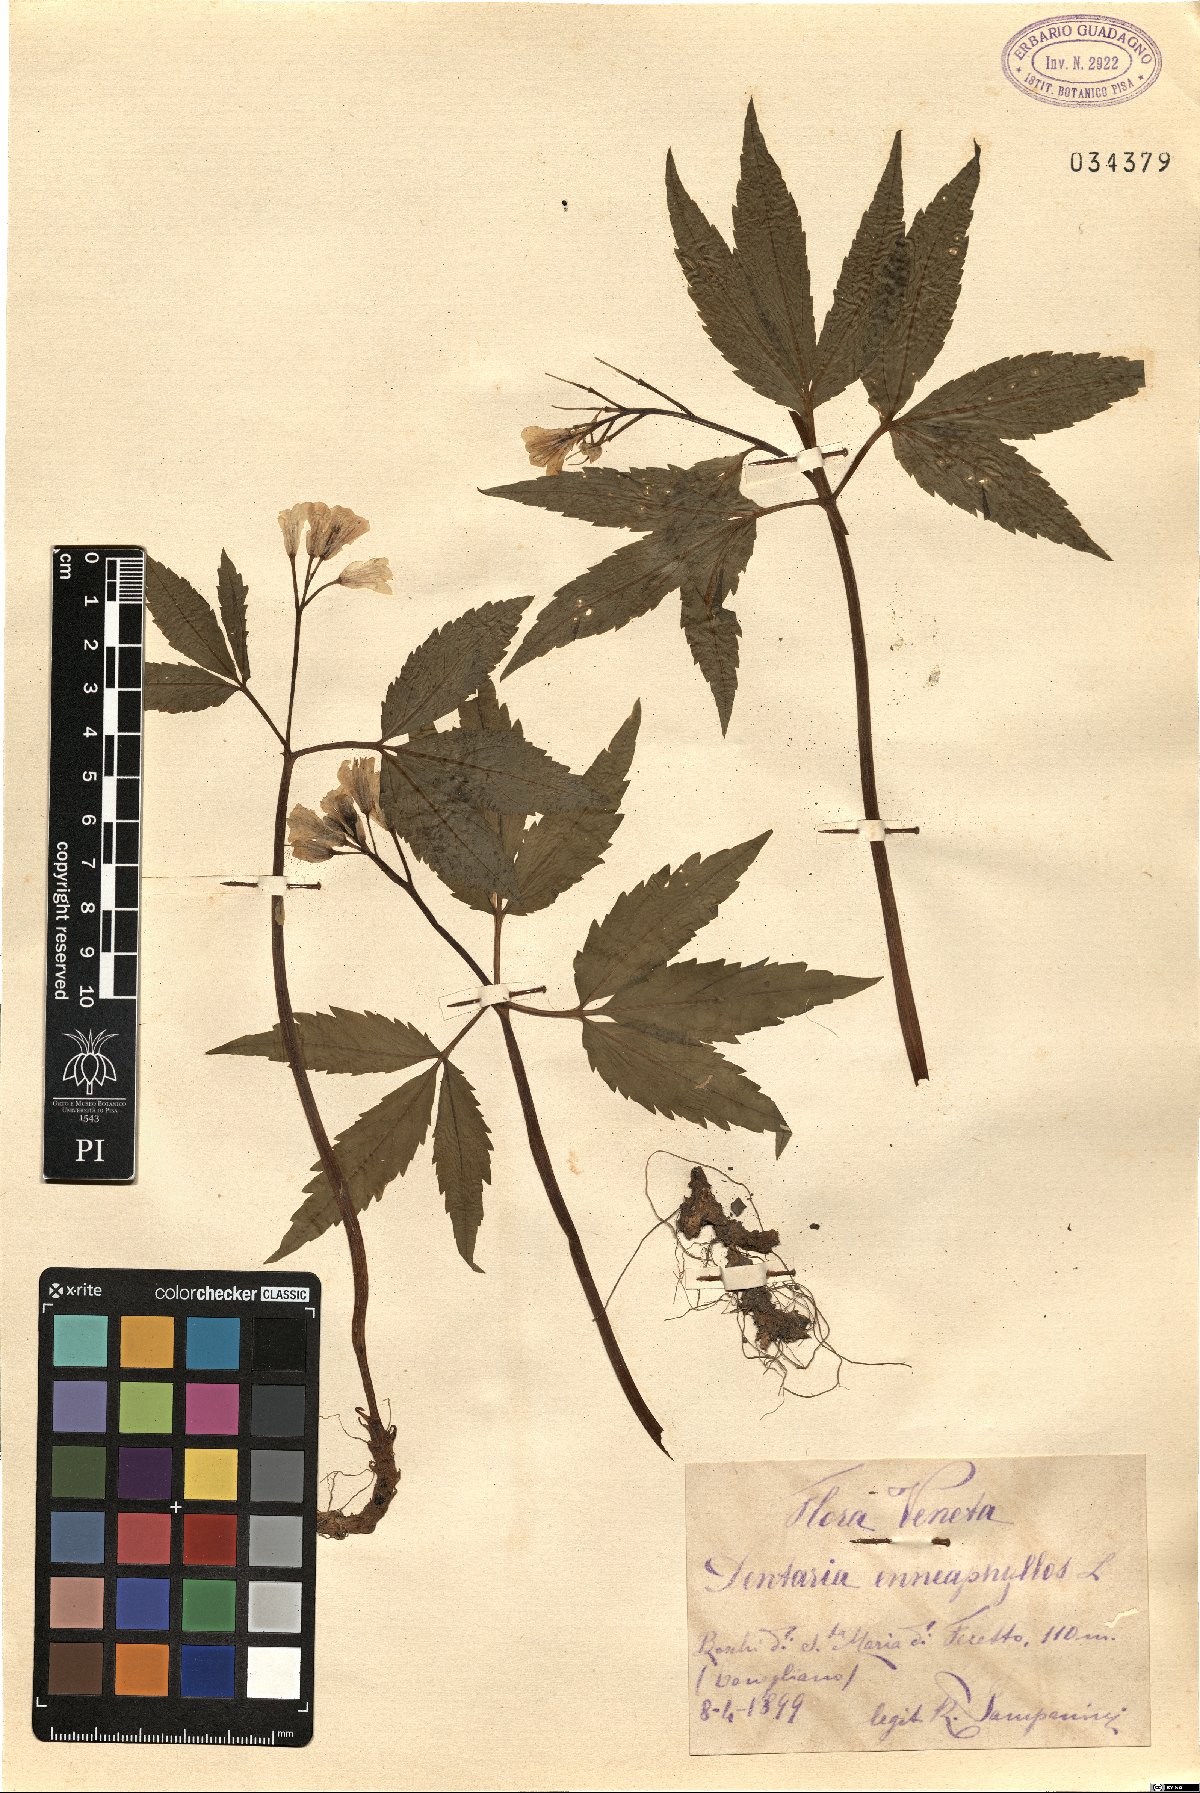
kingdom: Plantae
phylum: Tracheophyta
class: Magnoliopsida
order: Brassicales
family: Brassicaceae
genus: Cardamine
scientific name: Cardamine enneaphyllos
